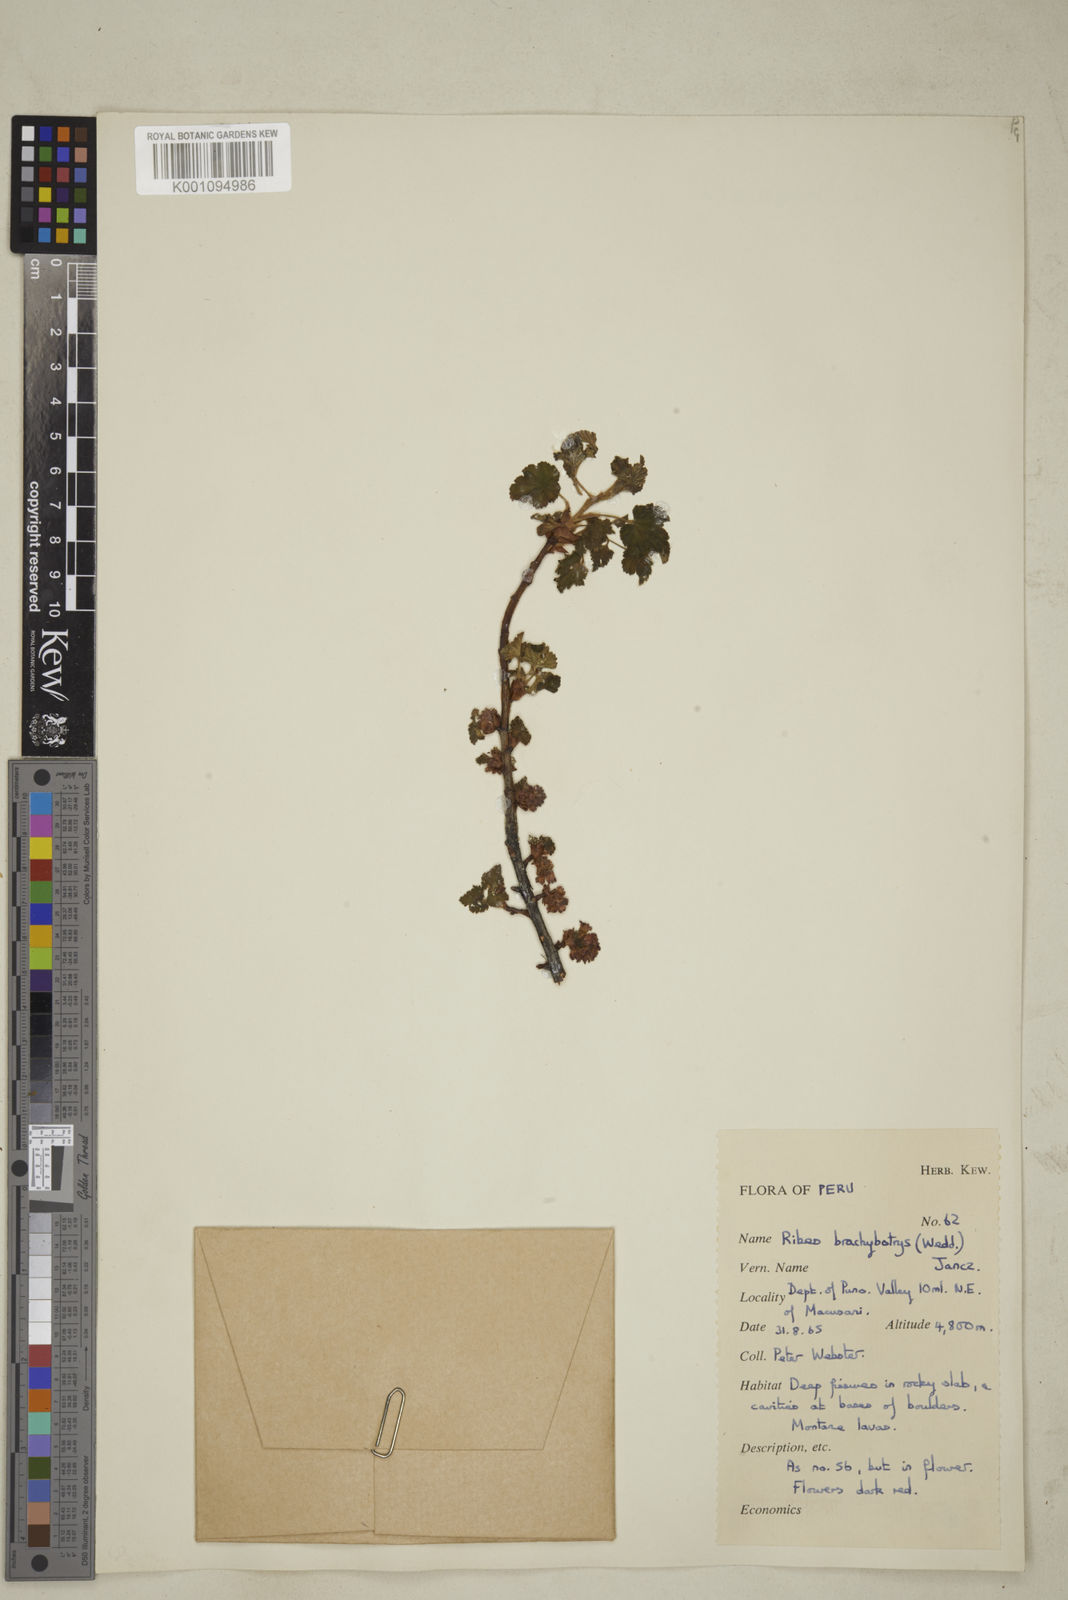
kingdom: Plantae
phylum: Tracheophyta
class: Magnoliopsida
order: Saxifragales
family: Grossulariaceae
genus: Ribes
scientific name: Ribes brachybotrys
